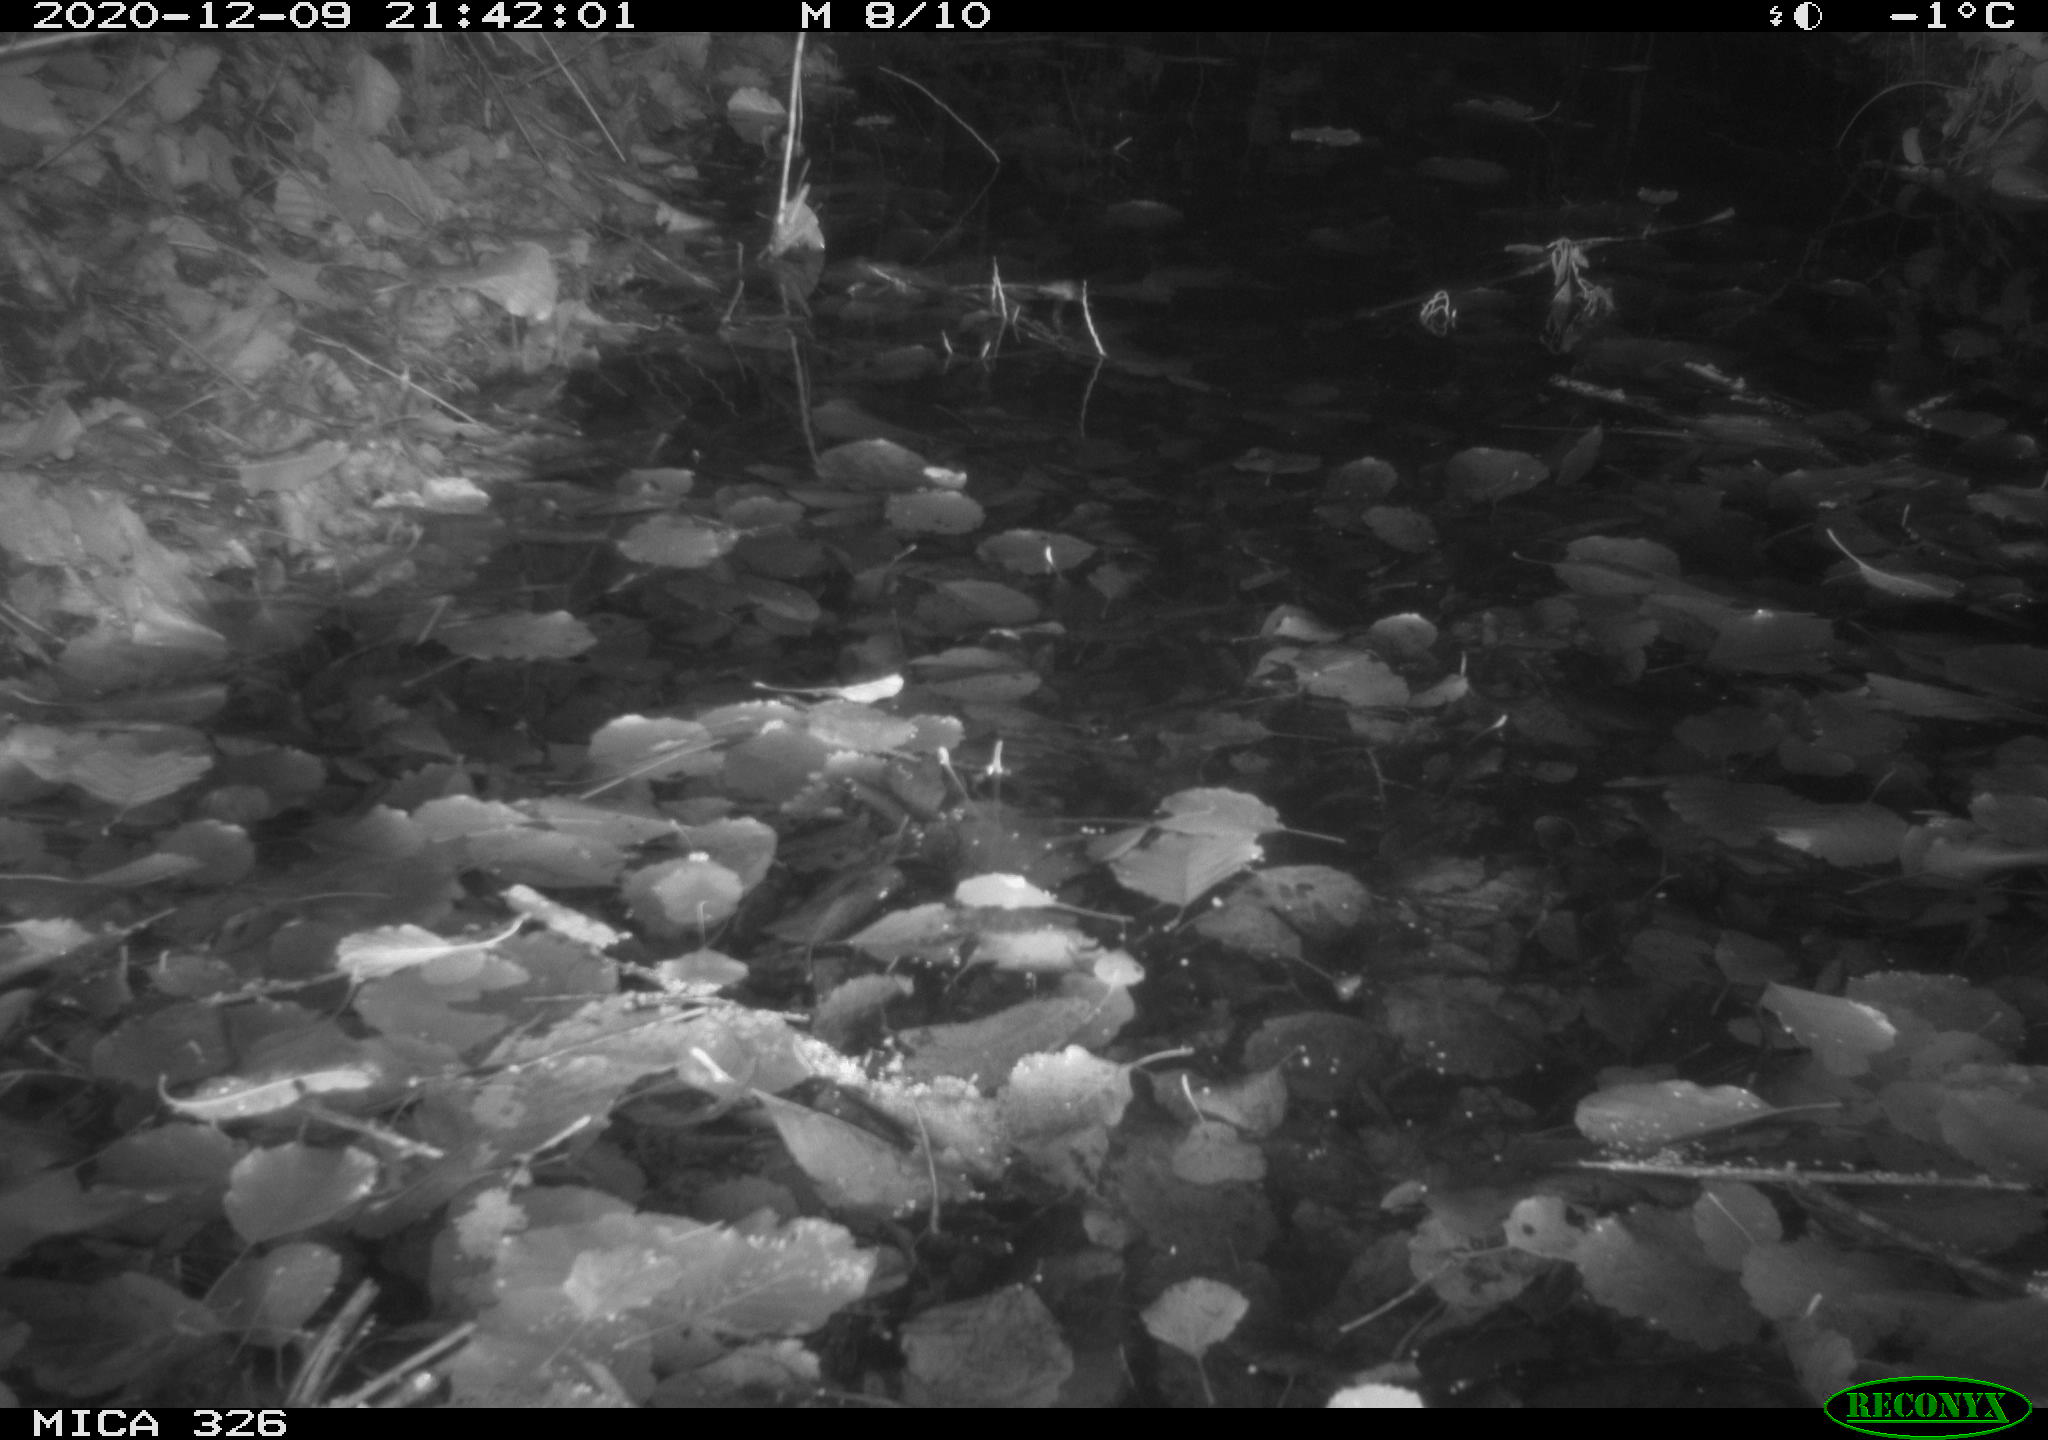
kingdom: Animalia
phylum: Chordata
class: Mammalia
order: Rodentia
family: Cricetidae
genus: Ondatra
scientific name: Ondatra zibethicus
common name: Muskrat
